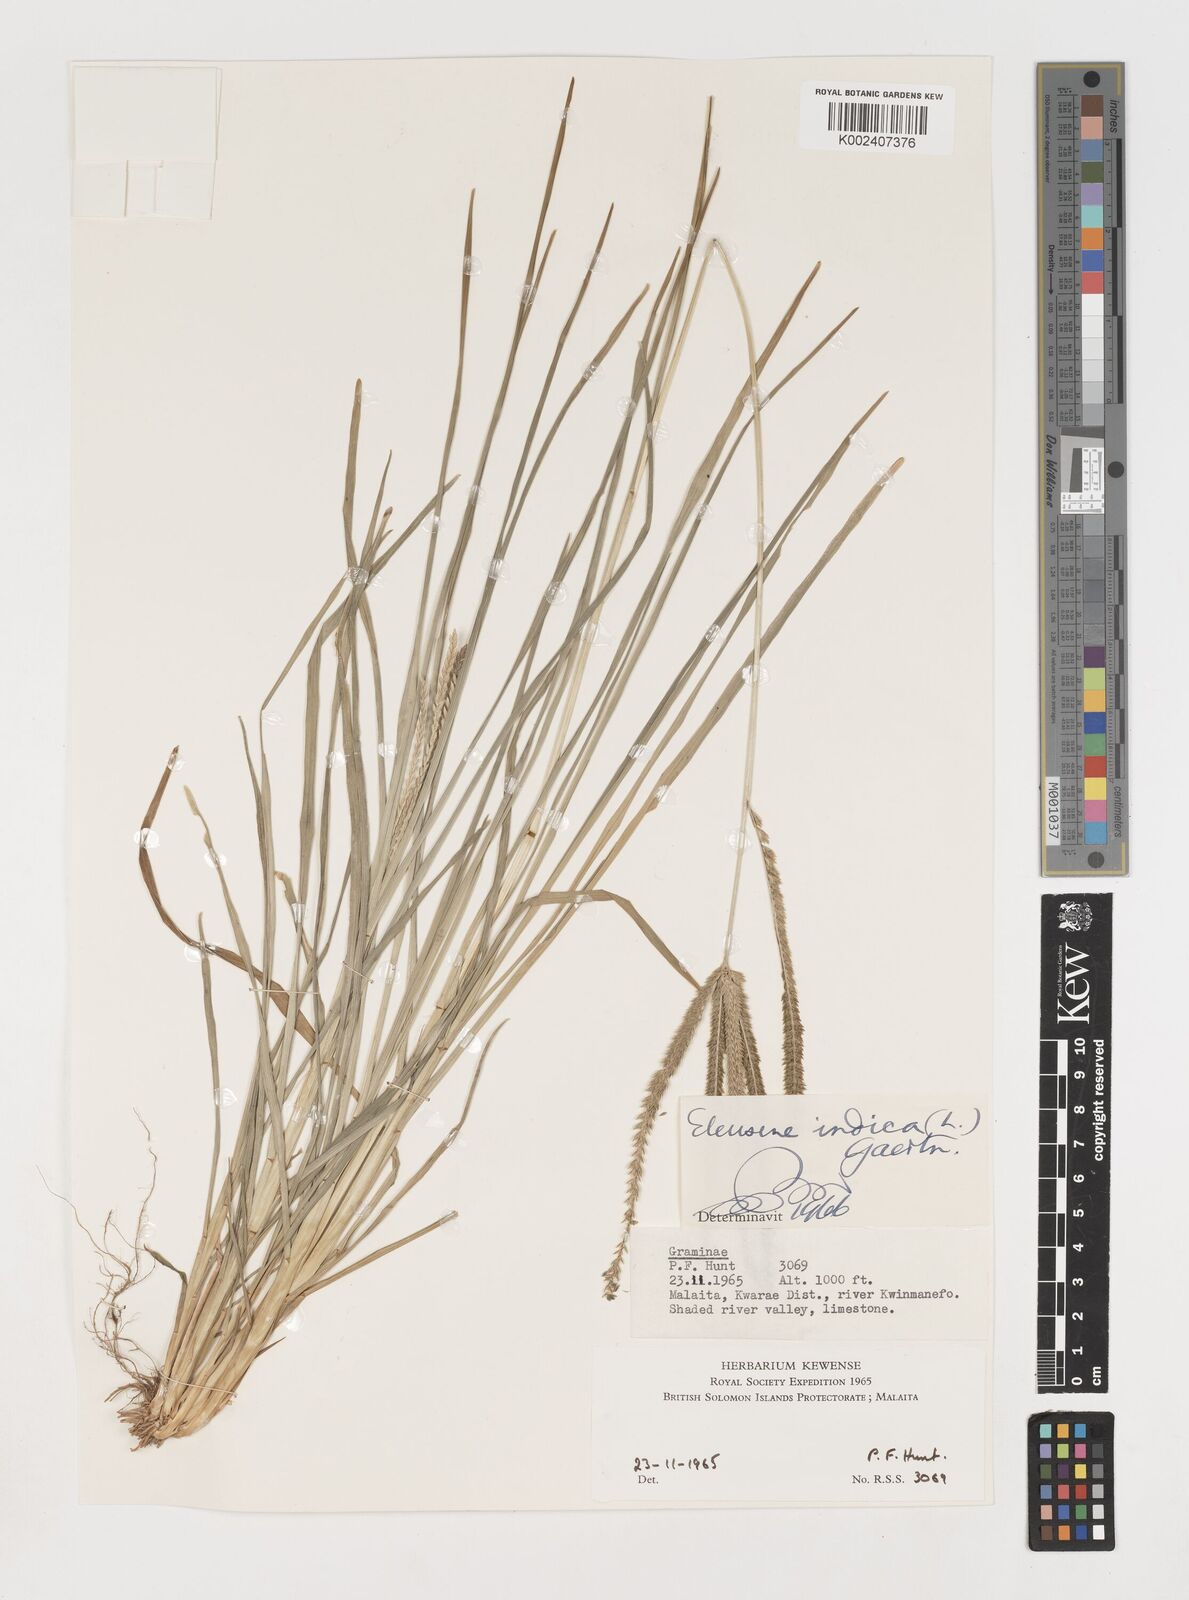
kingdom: Plantae
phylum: Tracheophyta
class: Liliopsida
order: Poales
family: Poaceae
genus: Eleusine
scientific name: Eleusine indica
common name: Yard-grass
